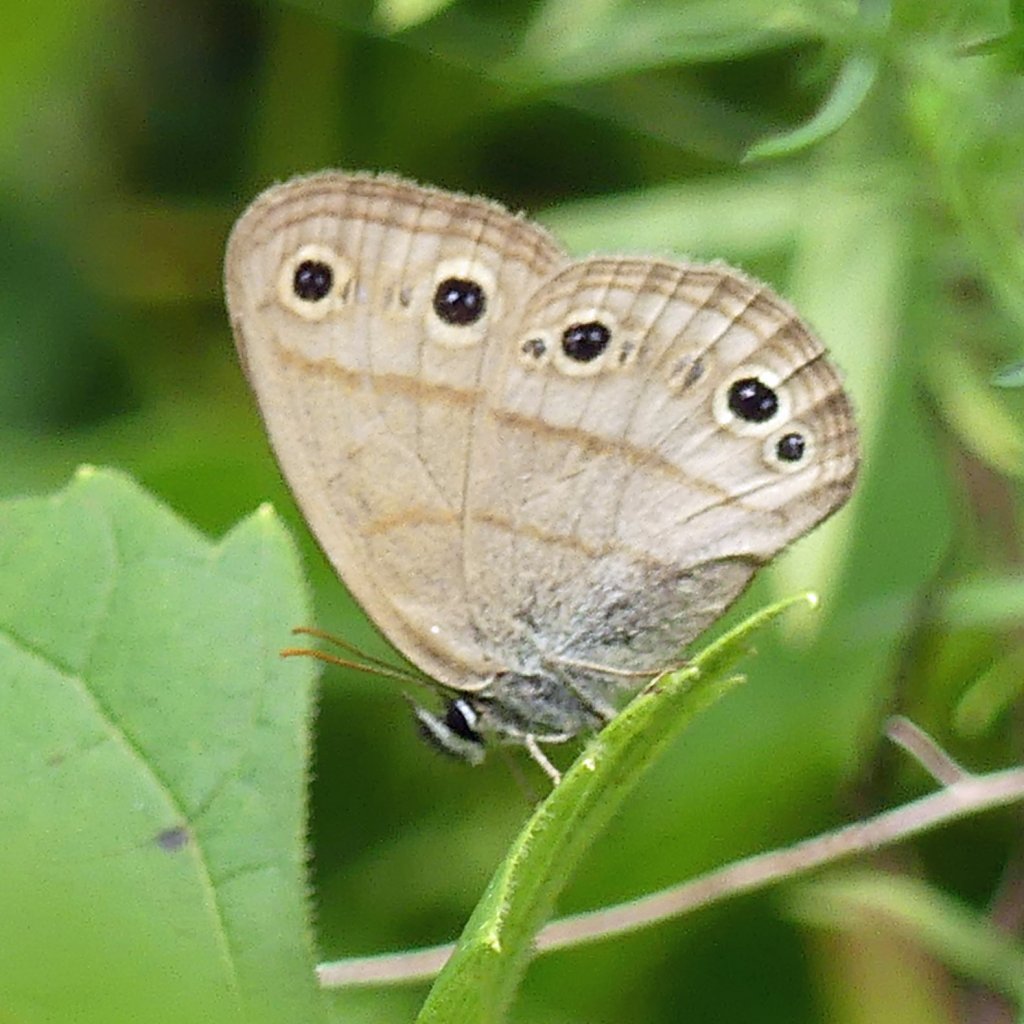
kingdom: Animalia
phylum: Arthropoda
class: Insecta
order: Lepidoptera
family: Nymphalidae
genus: Euptychia
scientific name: Euptychia cymela
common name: Little Wood Satyr
